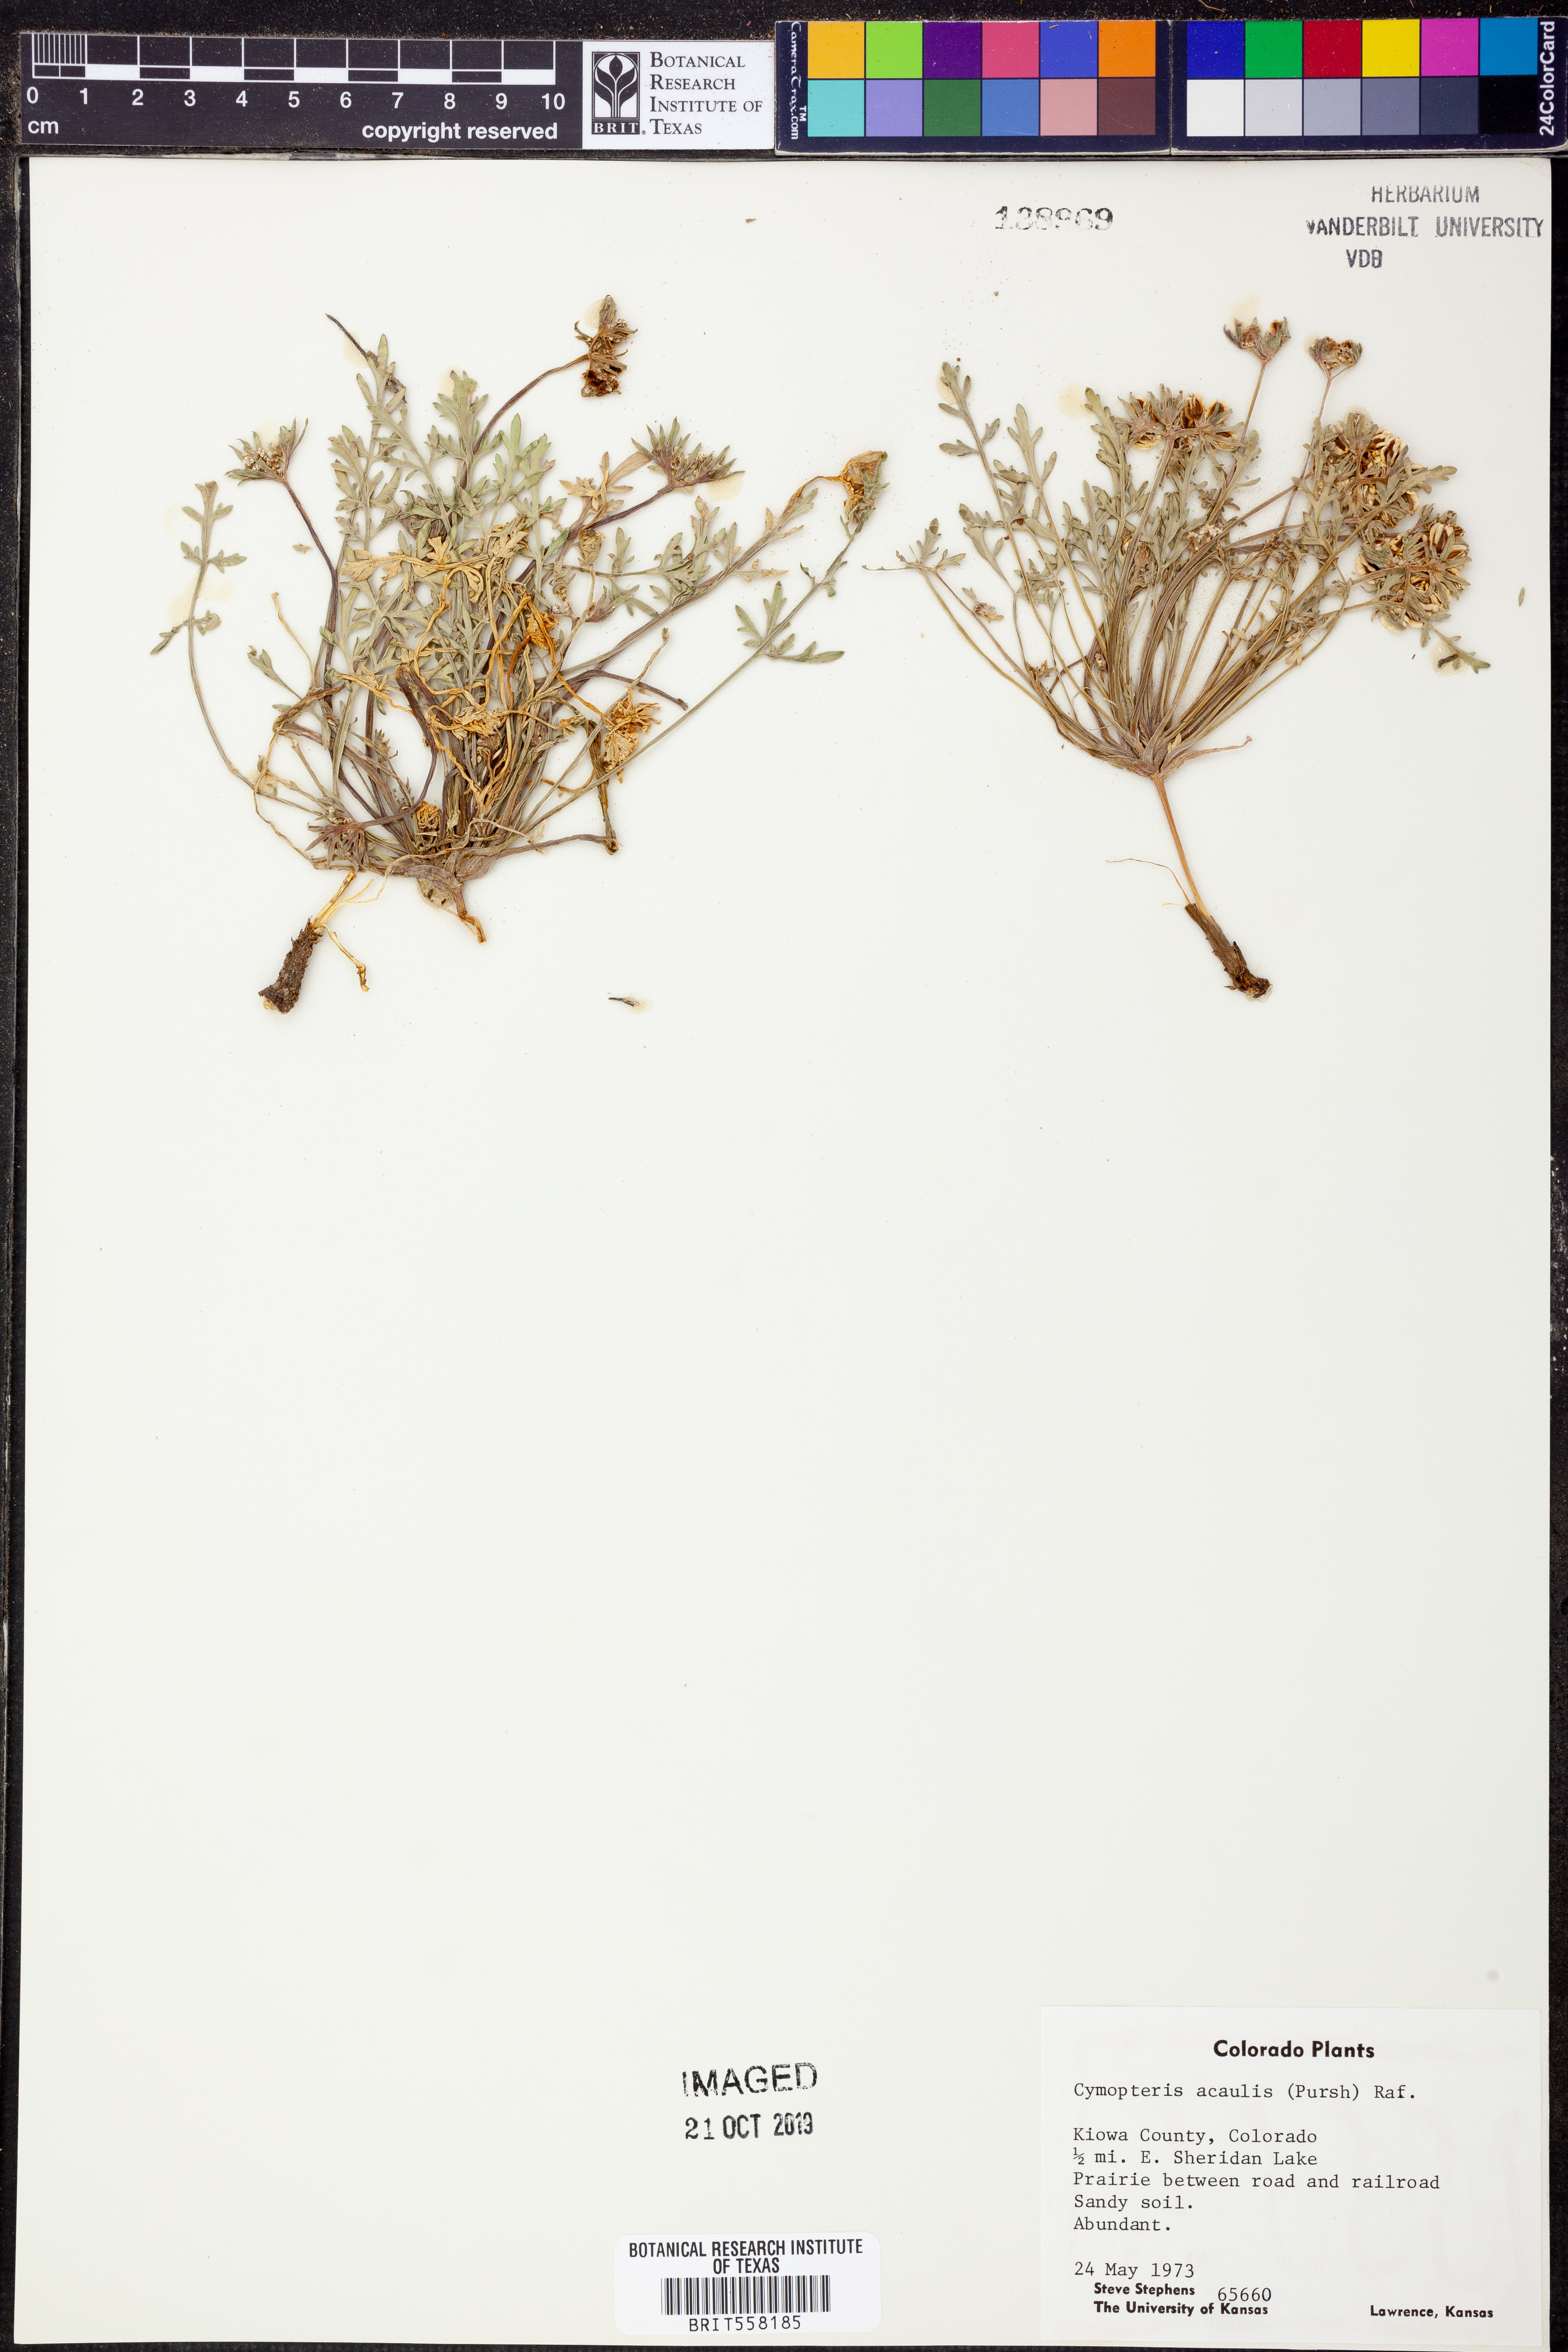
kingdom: Plantae
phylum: Tracheophyta
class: Magnoliopsida
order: Apiales
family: Apiaceae
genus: Cymopterus
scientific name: Cymopterus glomeratus
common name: Plains spring parsley
